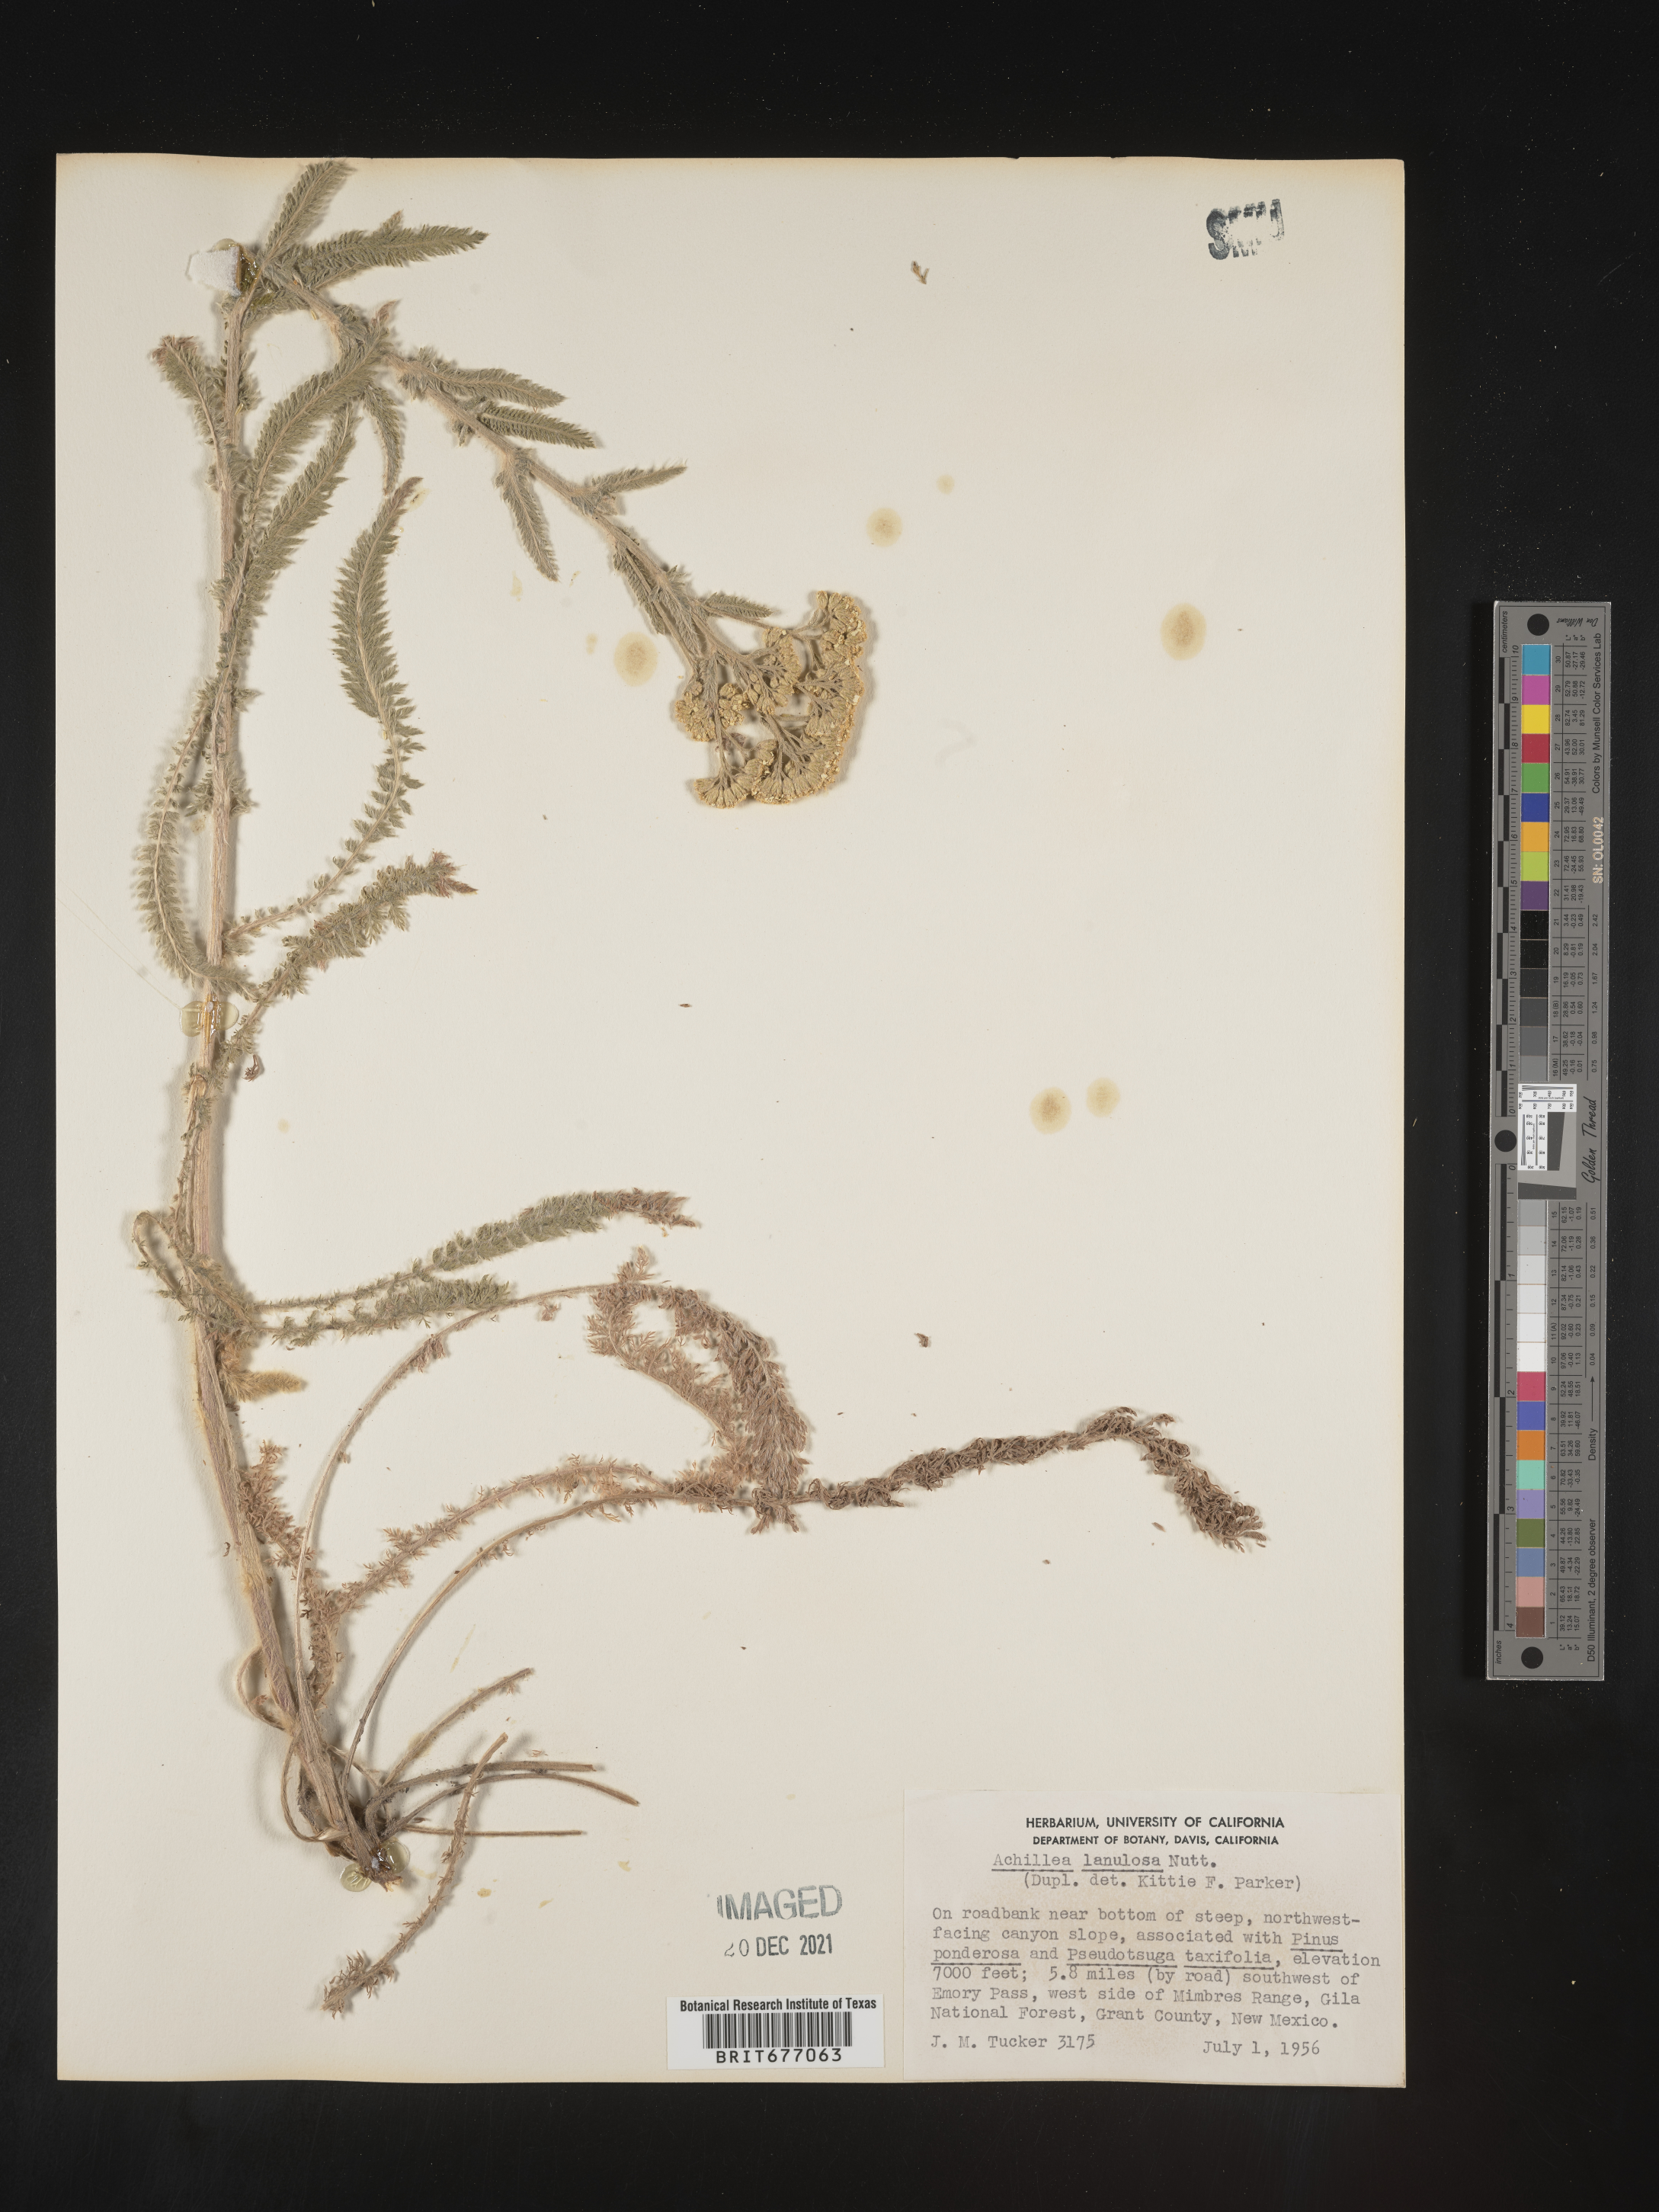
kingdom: Plantae
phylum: Tracheophyta
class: Magnoliopsida
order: Asterales
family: Asteraceae
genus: Achillea
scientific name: Achillea millefolium
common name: Yarrow
